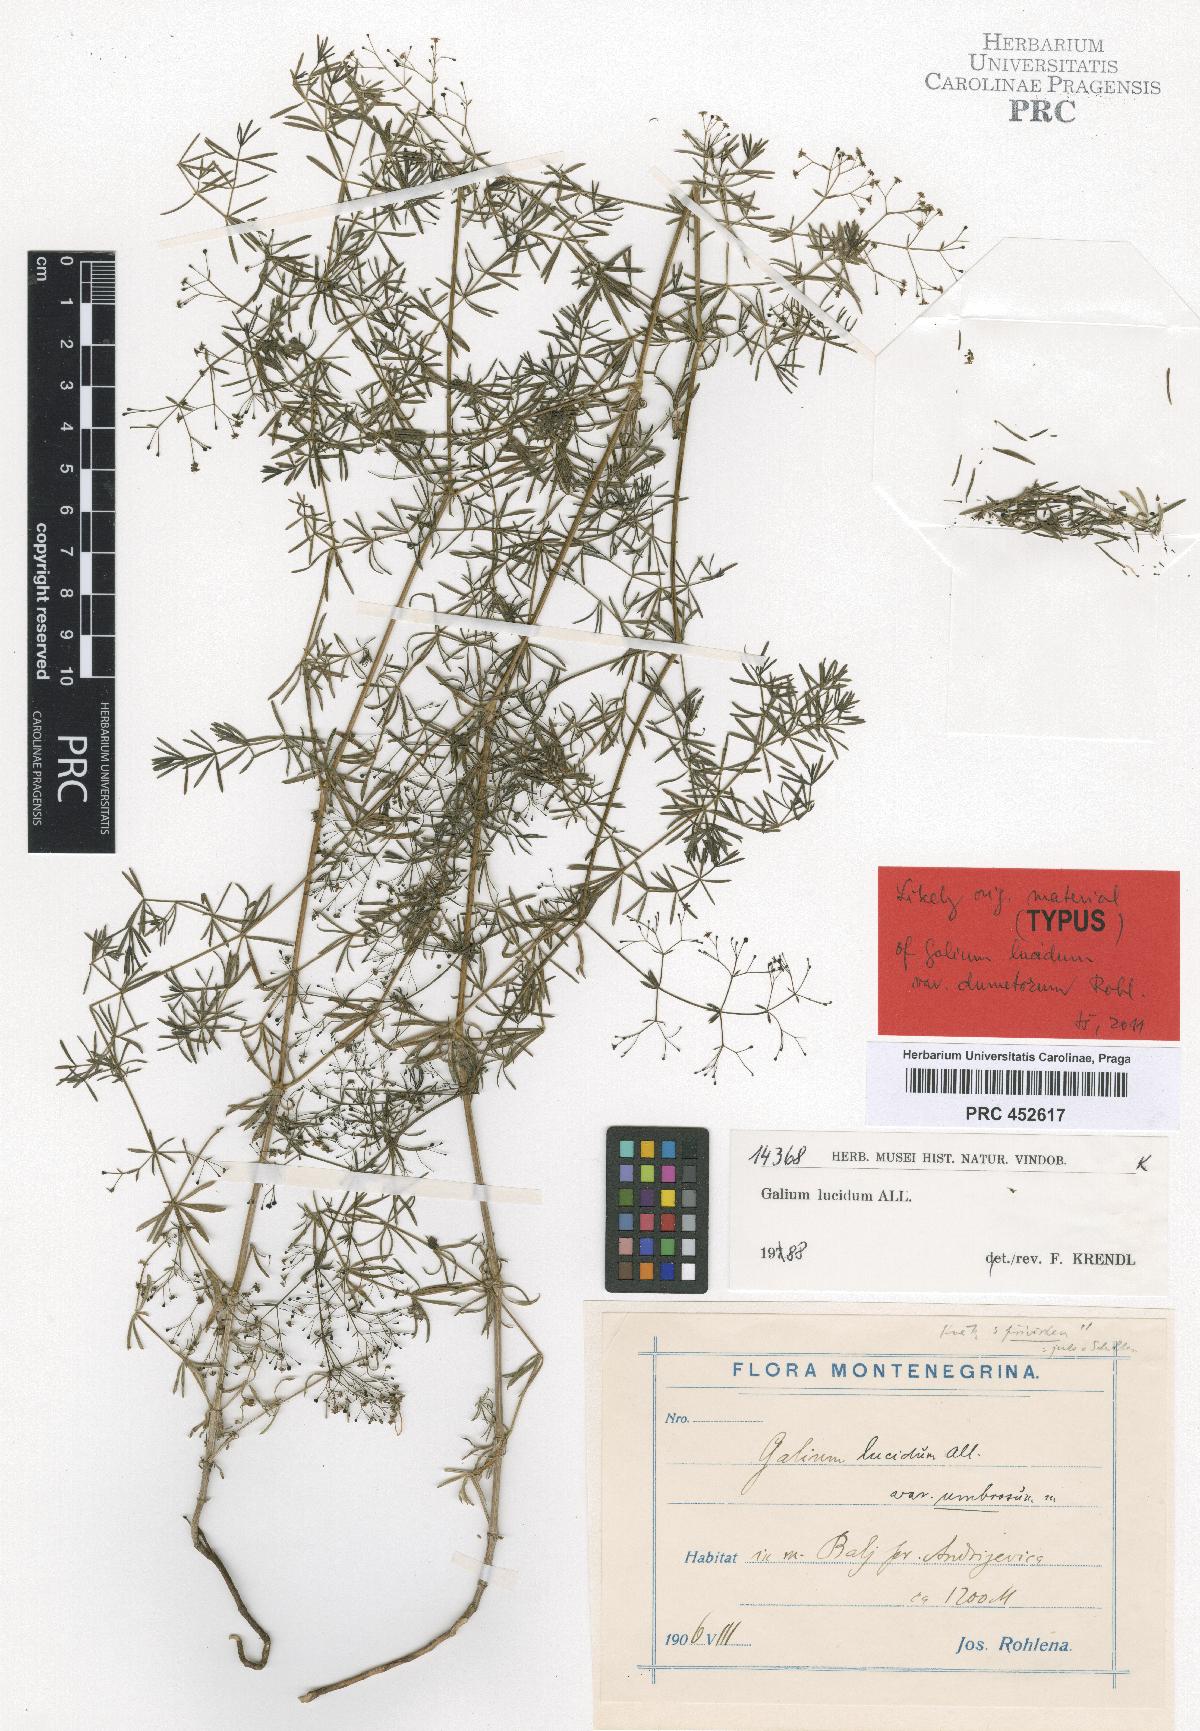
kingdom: Plantae
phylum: Tracheophyta
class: Magnoliopsida
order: Gentianales
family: Rubiaceae
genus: Galium
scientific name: Galium lucidum
